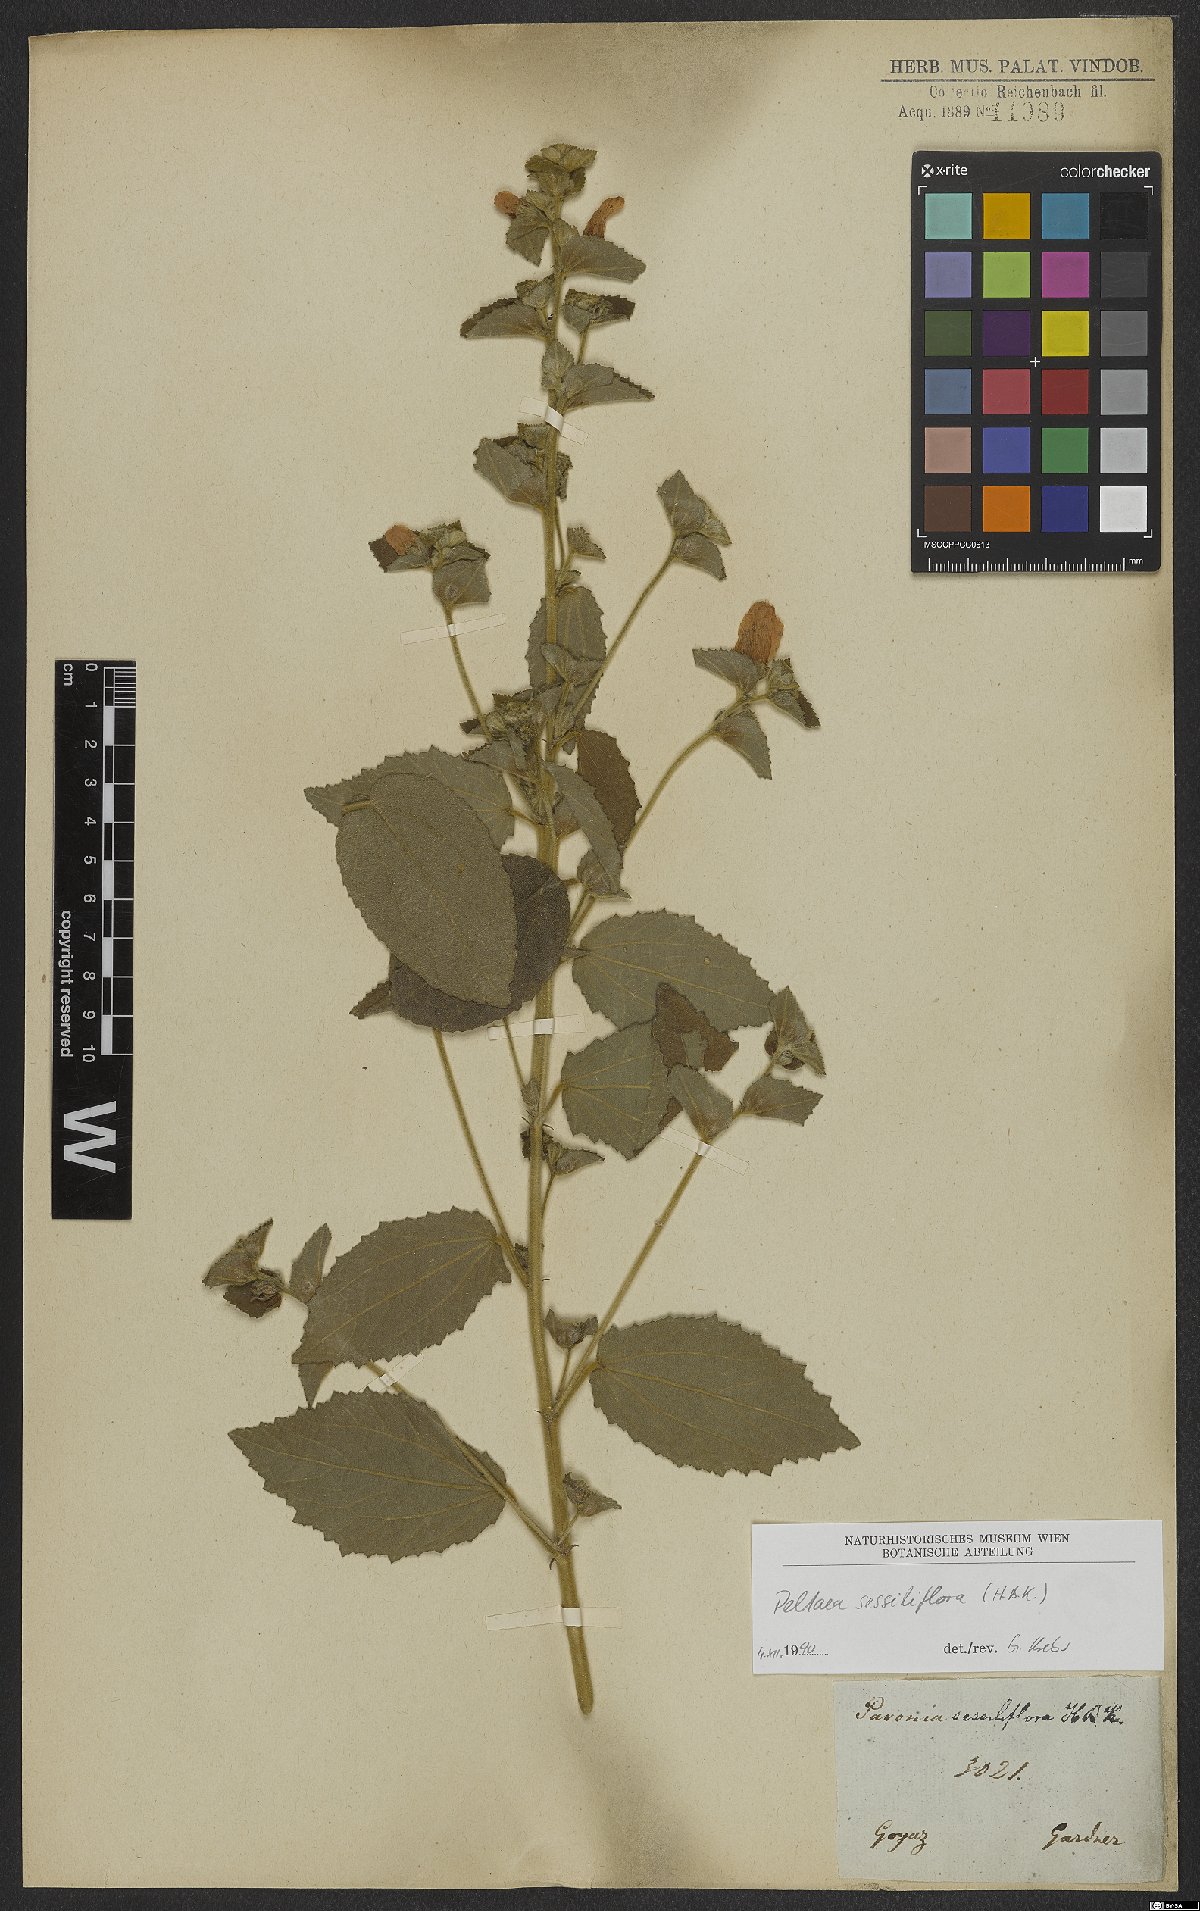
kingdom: Plantae
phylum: Tracheophyta
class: Magnoliopsida
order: Malvales
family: Malvaceae
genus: Peltaea
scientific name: Peltaea sessiliflora
